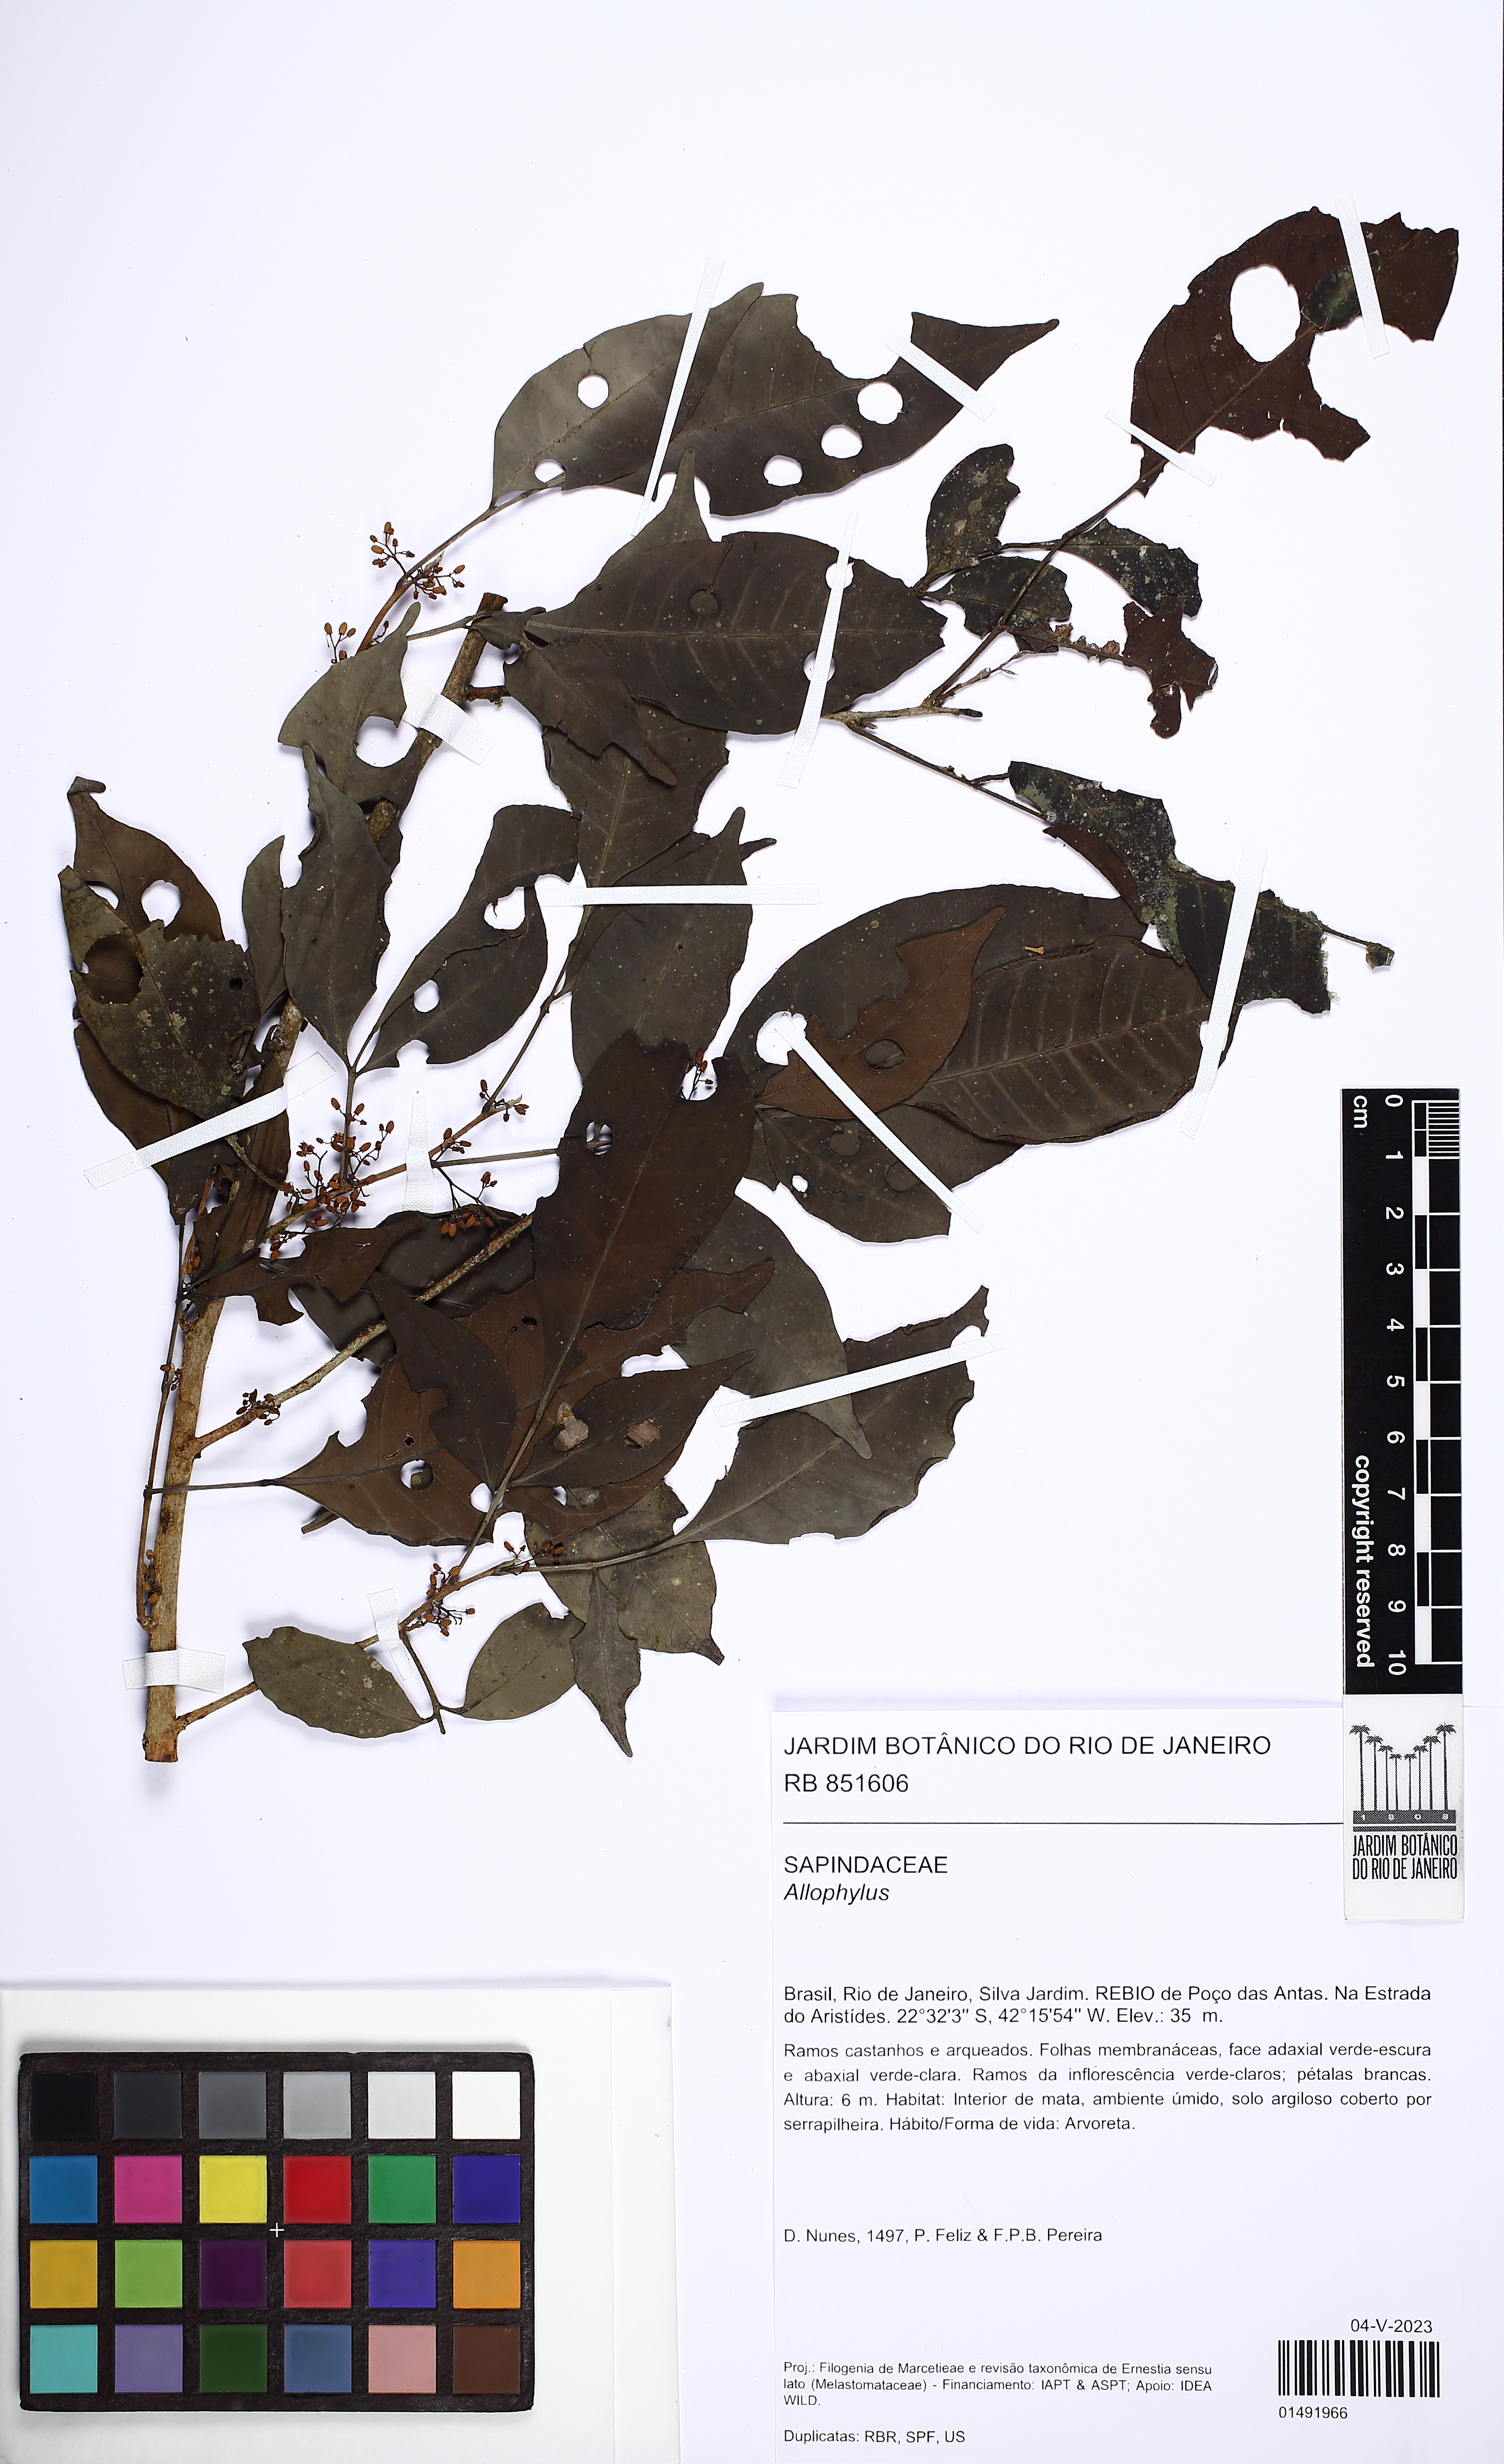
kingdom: Plantae
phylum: Tracheophyta
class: Magnoliopsida
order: Sapindales
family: Sapindaceae
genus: Allophylus
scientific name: Allophylus petiolulatus
